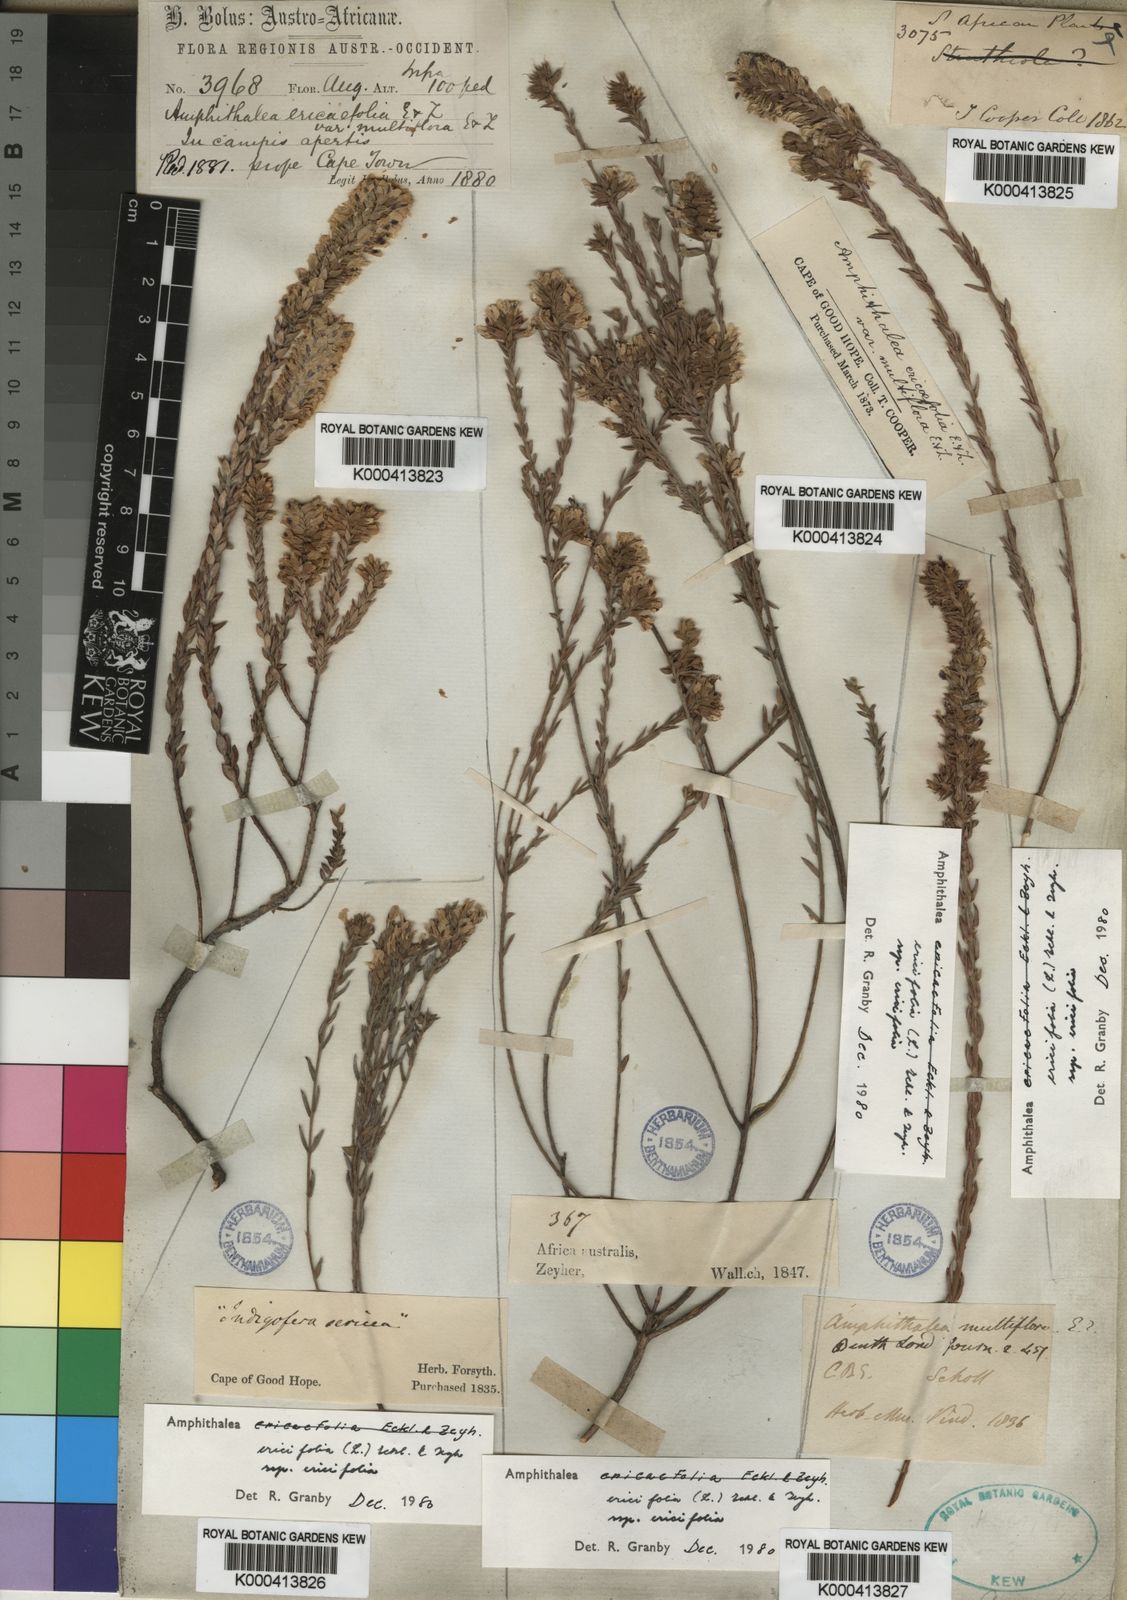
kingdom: Plantae
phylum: Tracheophyta
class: Magnoliopsida
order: Fabales
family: Fabaceae
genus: Amphithalea
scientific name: Amphithalea ericifolia
